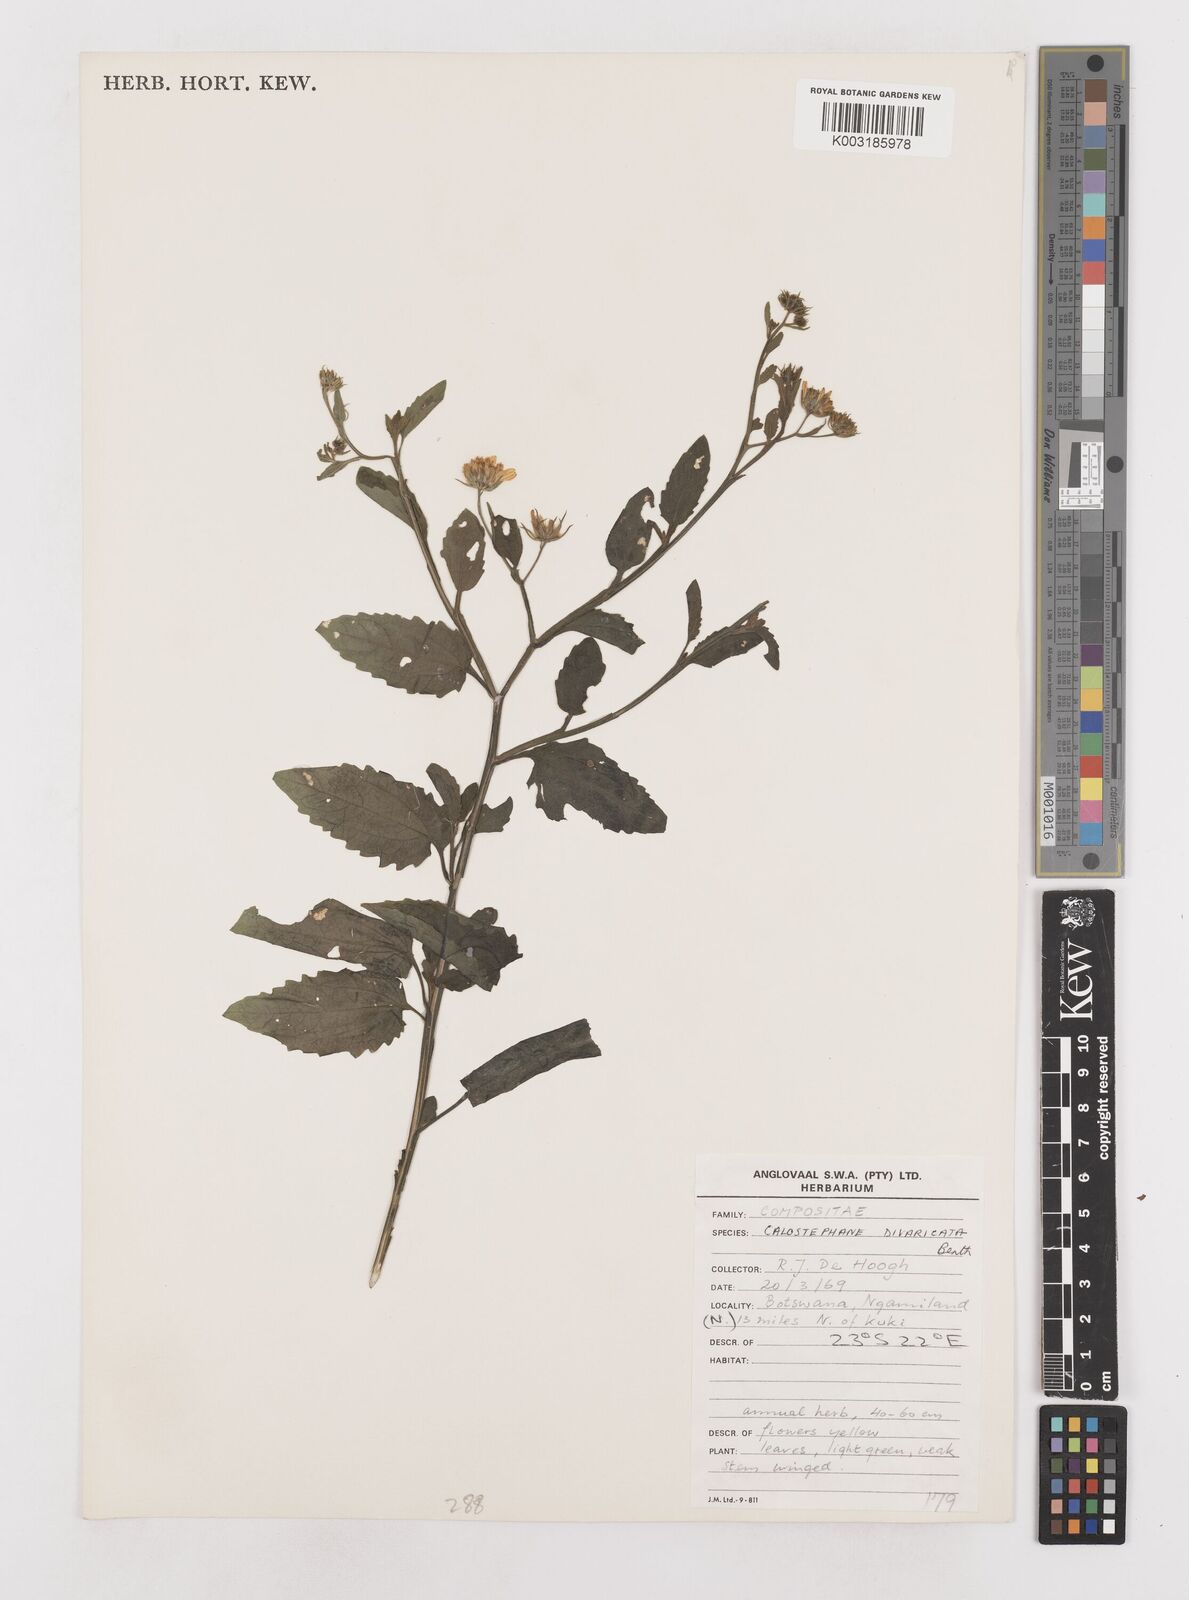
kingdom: Plantae
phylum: Tracheophyta
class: Magnoliopsida
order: Asterales
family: Asteraceae
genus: Calostephane
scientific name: Calostephane divaricata
